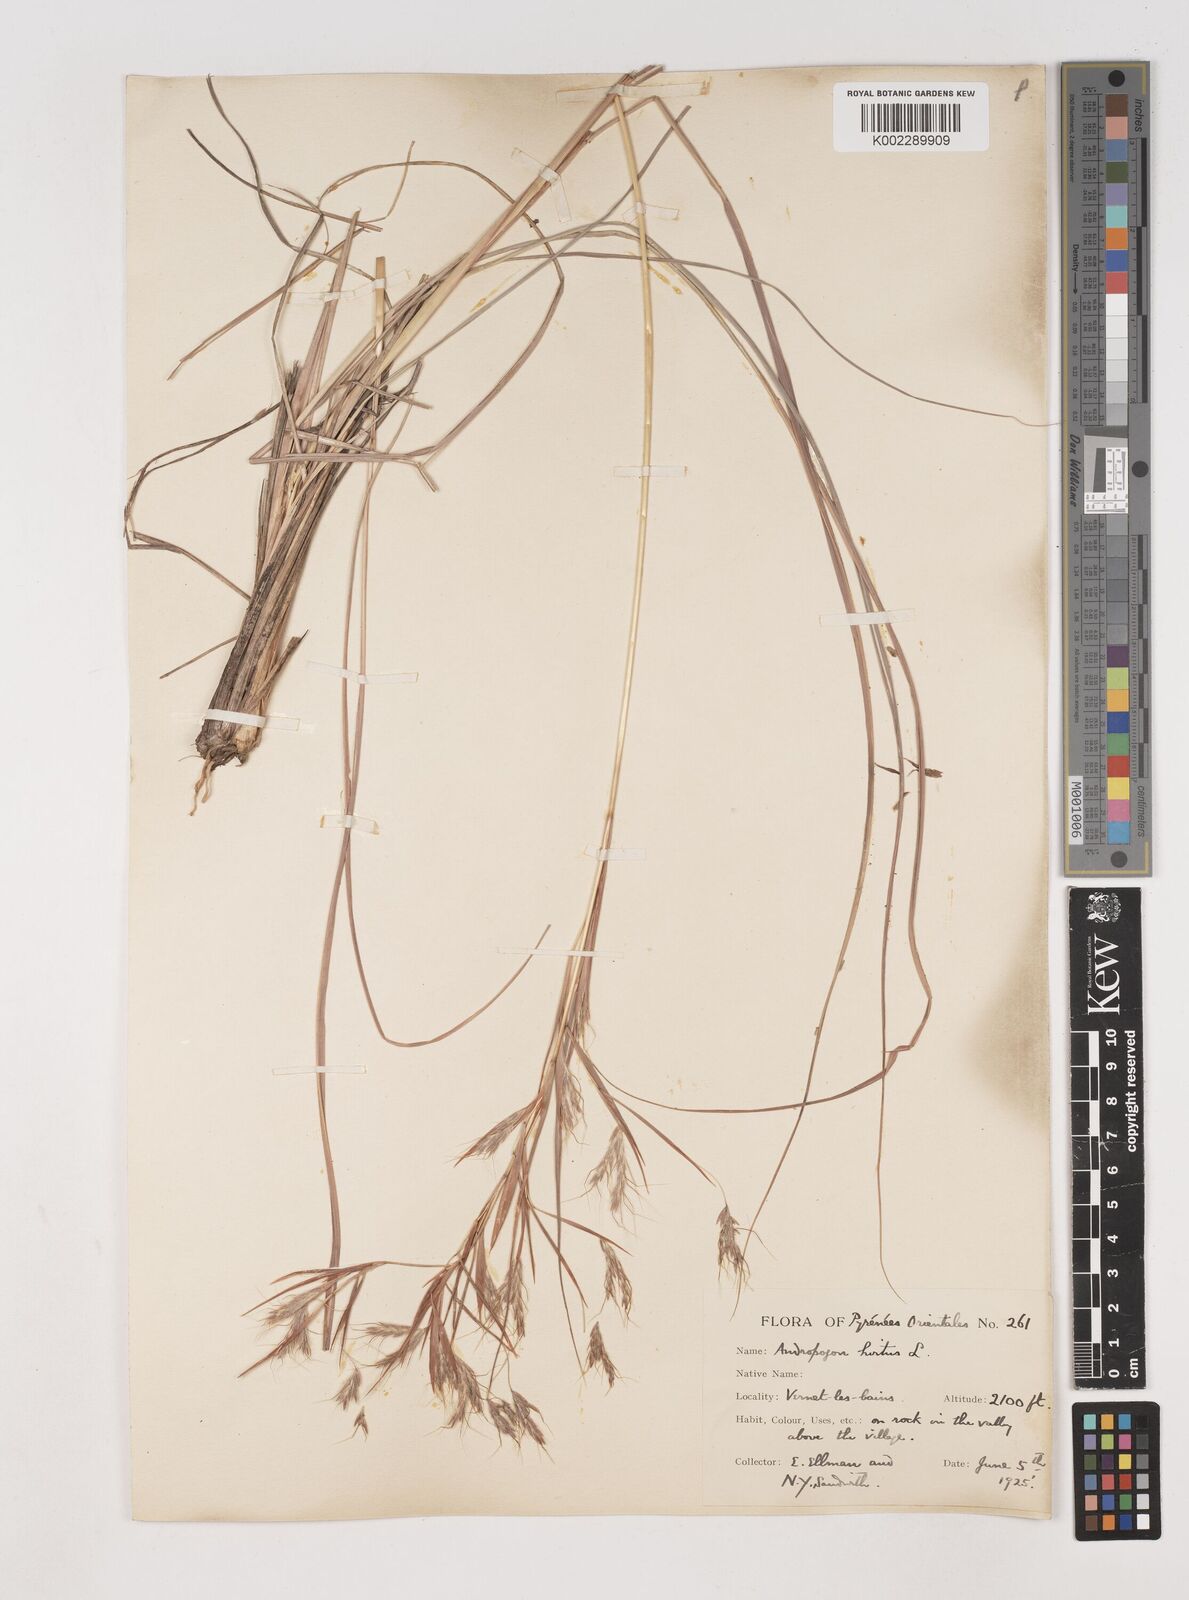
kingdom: Plantae
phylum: Tracheophyta
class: Liliopsida
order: Poales
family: Poaceae
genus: Hyparrhenia
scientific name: Hyparrhenia hirta
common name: Thatching grass
